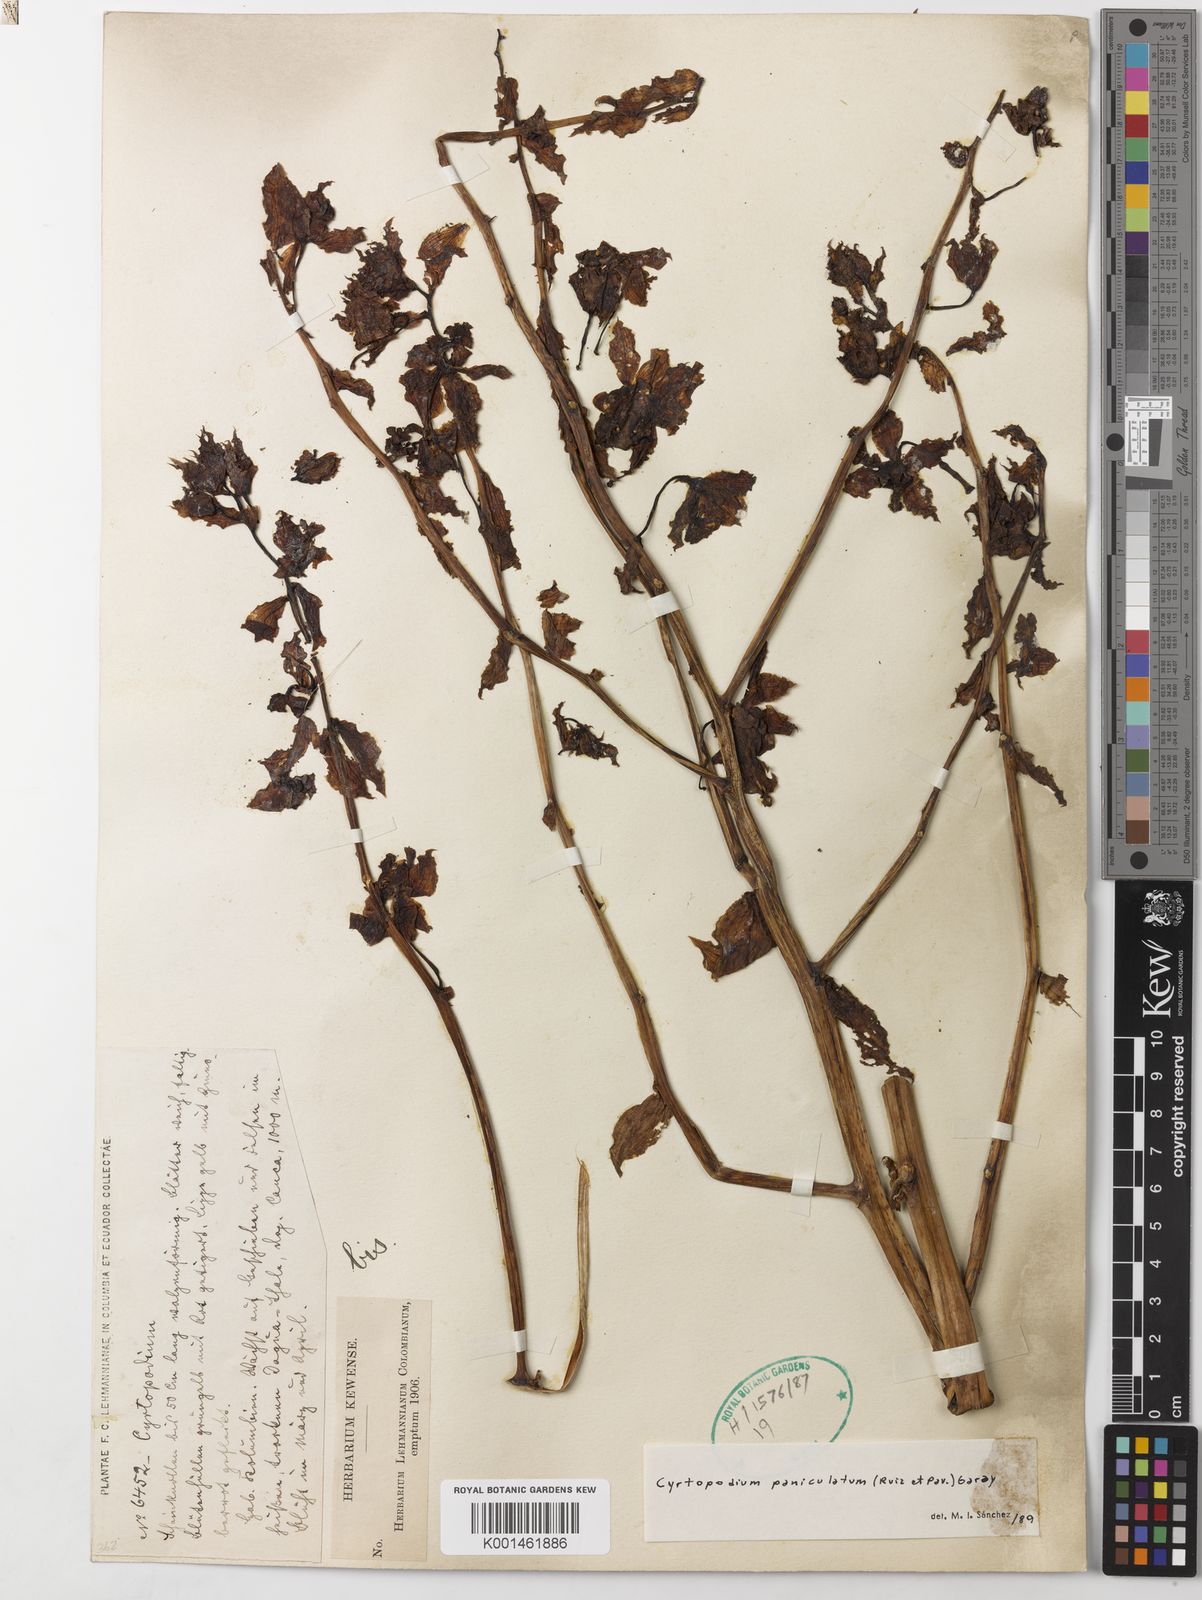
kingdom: Plantae
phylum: Tracheophyta
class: Liliopsida
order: Asparagales
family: Orchidaceae
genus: Cyrtopodium
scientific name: Cyrtopodium paniculatum
